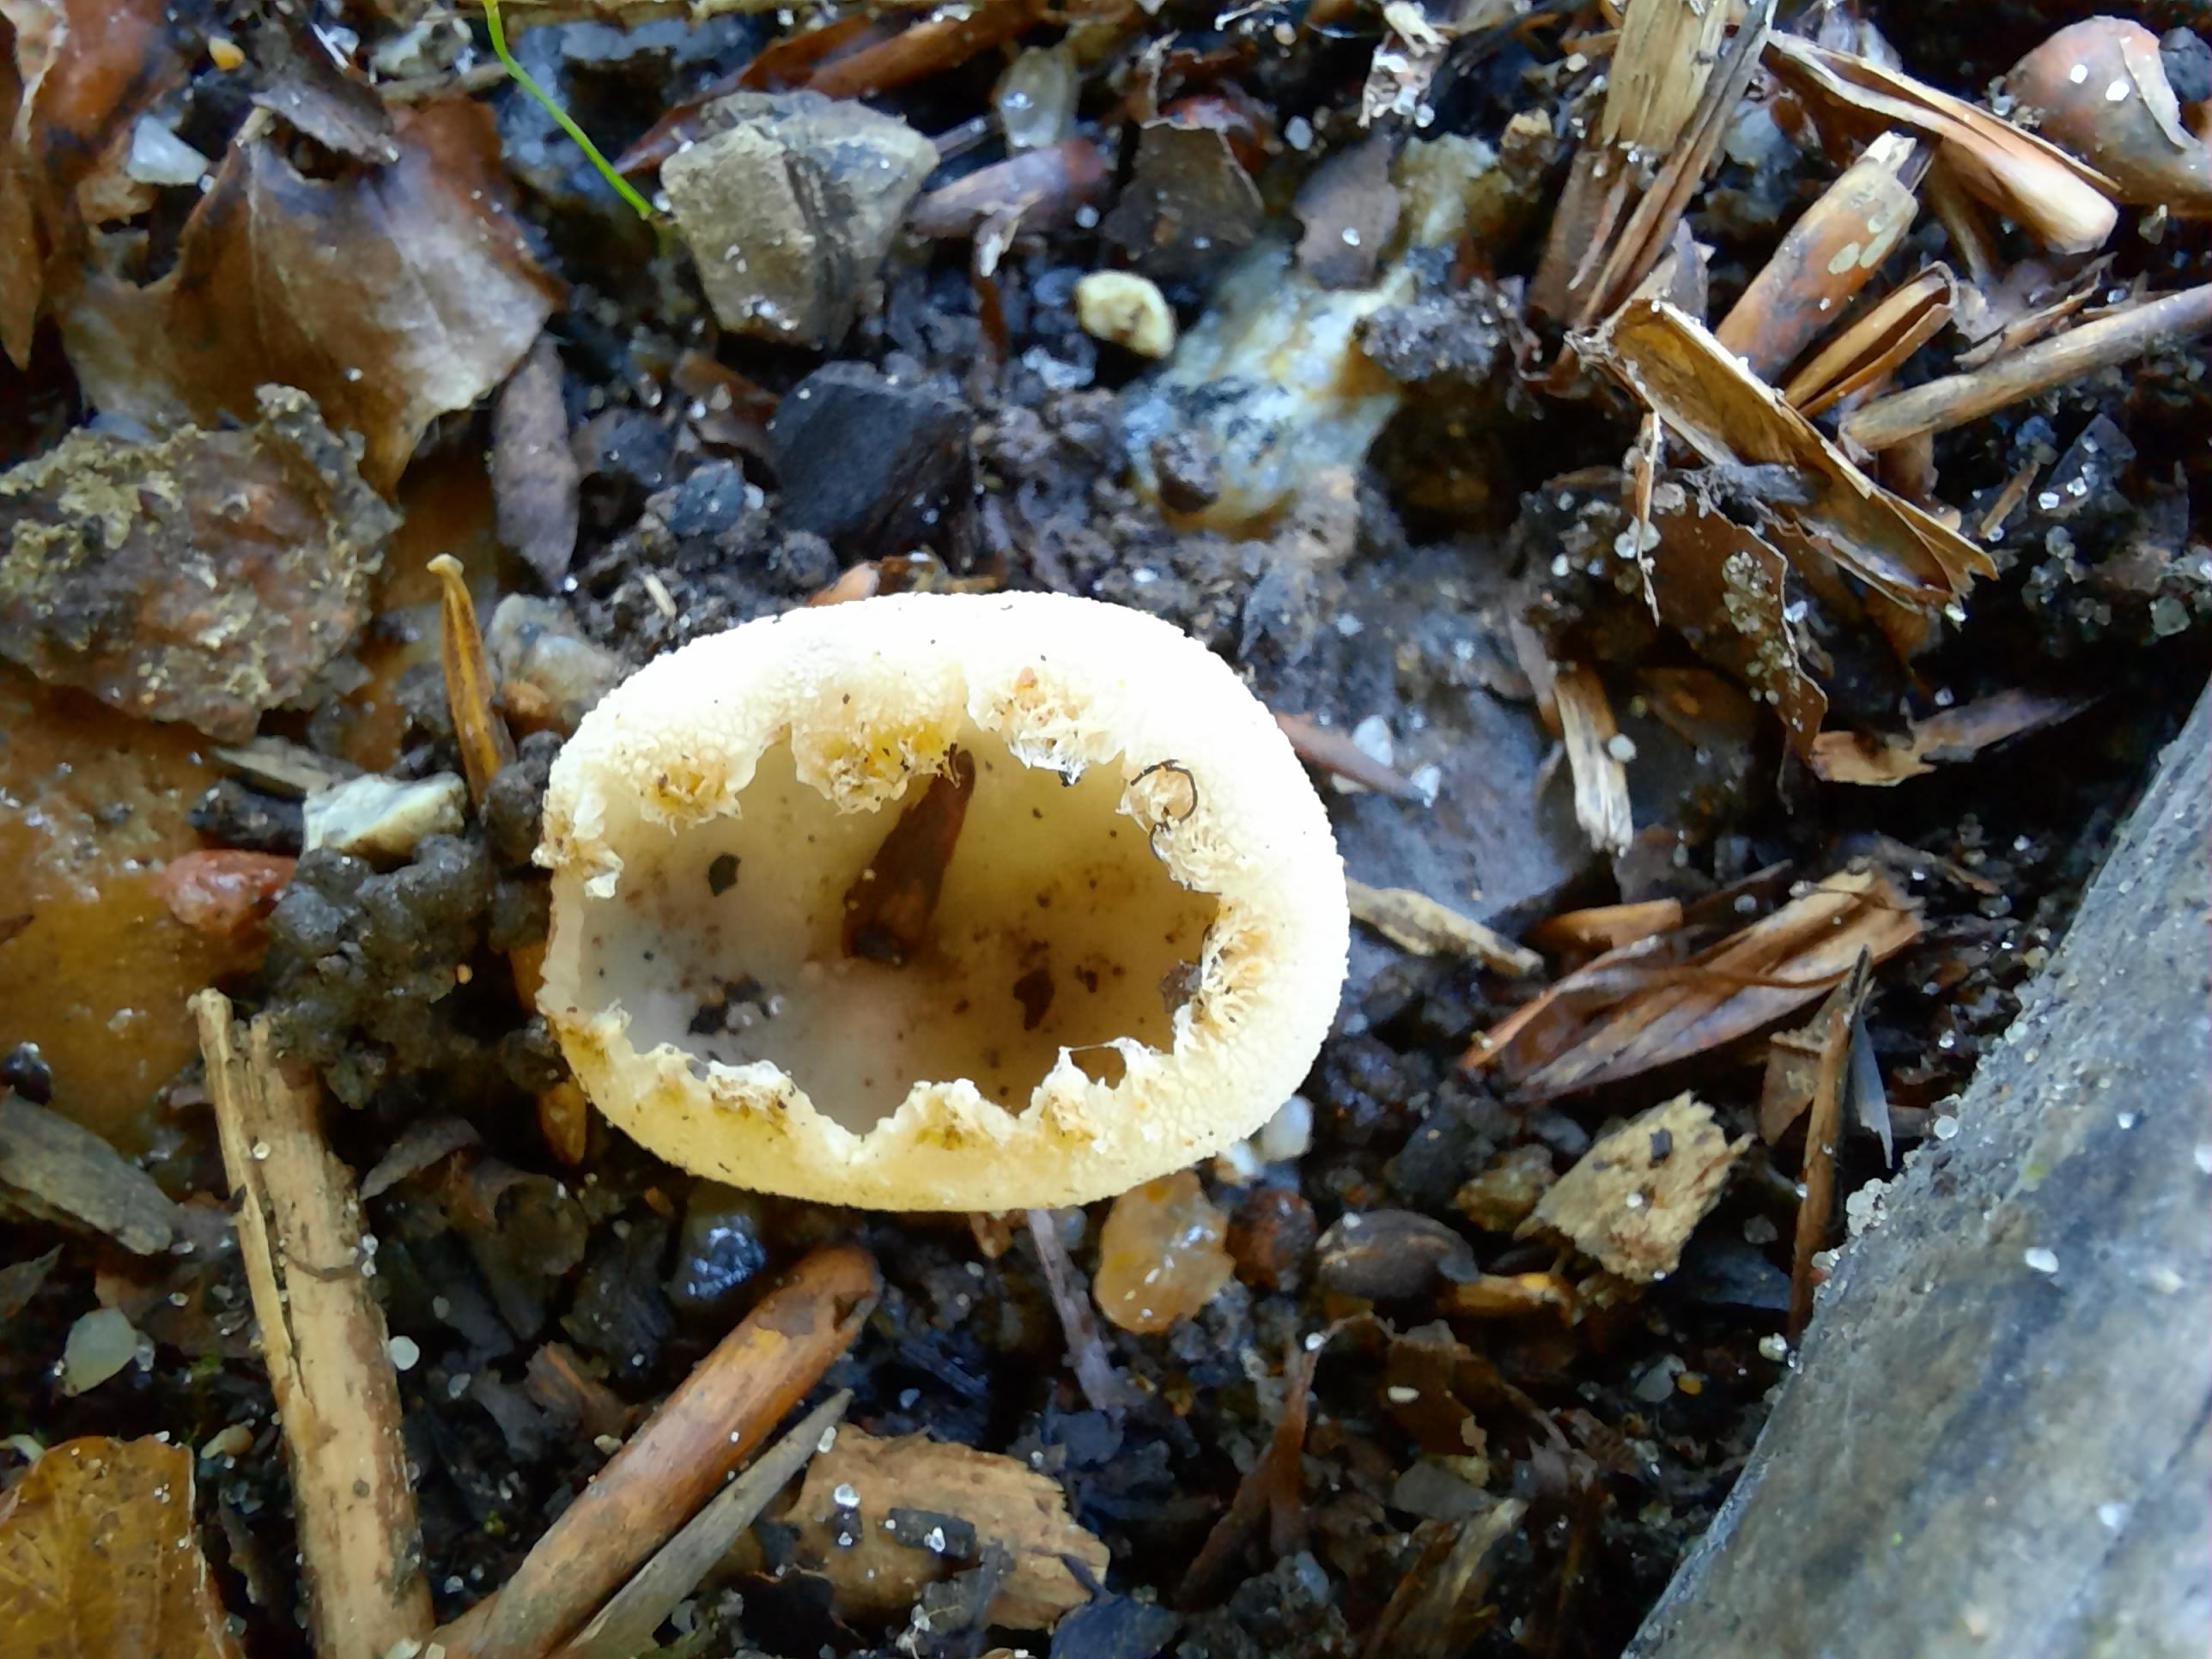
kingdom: Fungi
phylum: Ascomycota
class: Pezizomycetes
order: Pezizales
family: Pyronemataceae
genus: Tarzetta
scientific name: Tarzetta cupularis
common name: gulbrun pokalbæger
